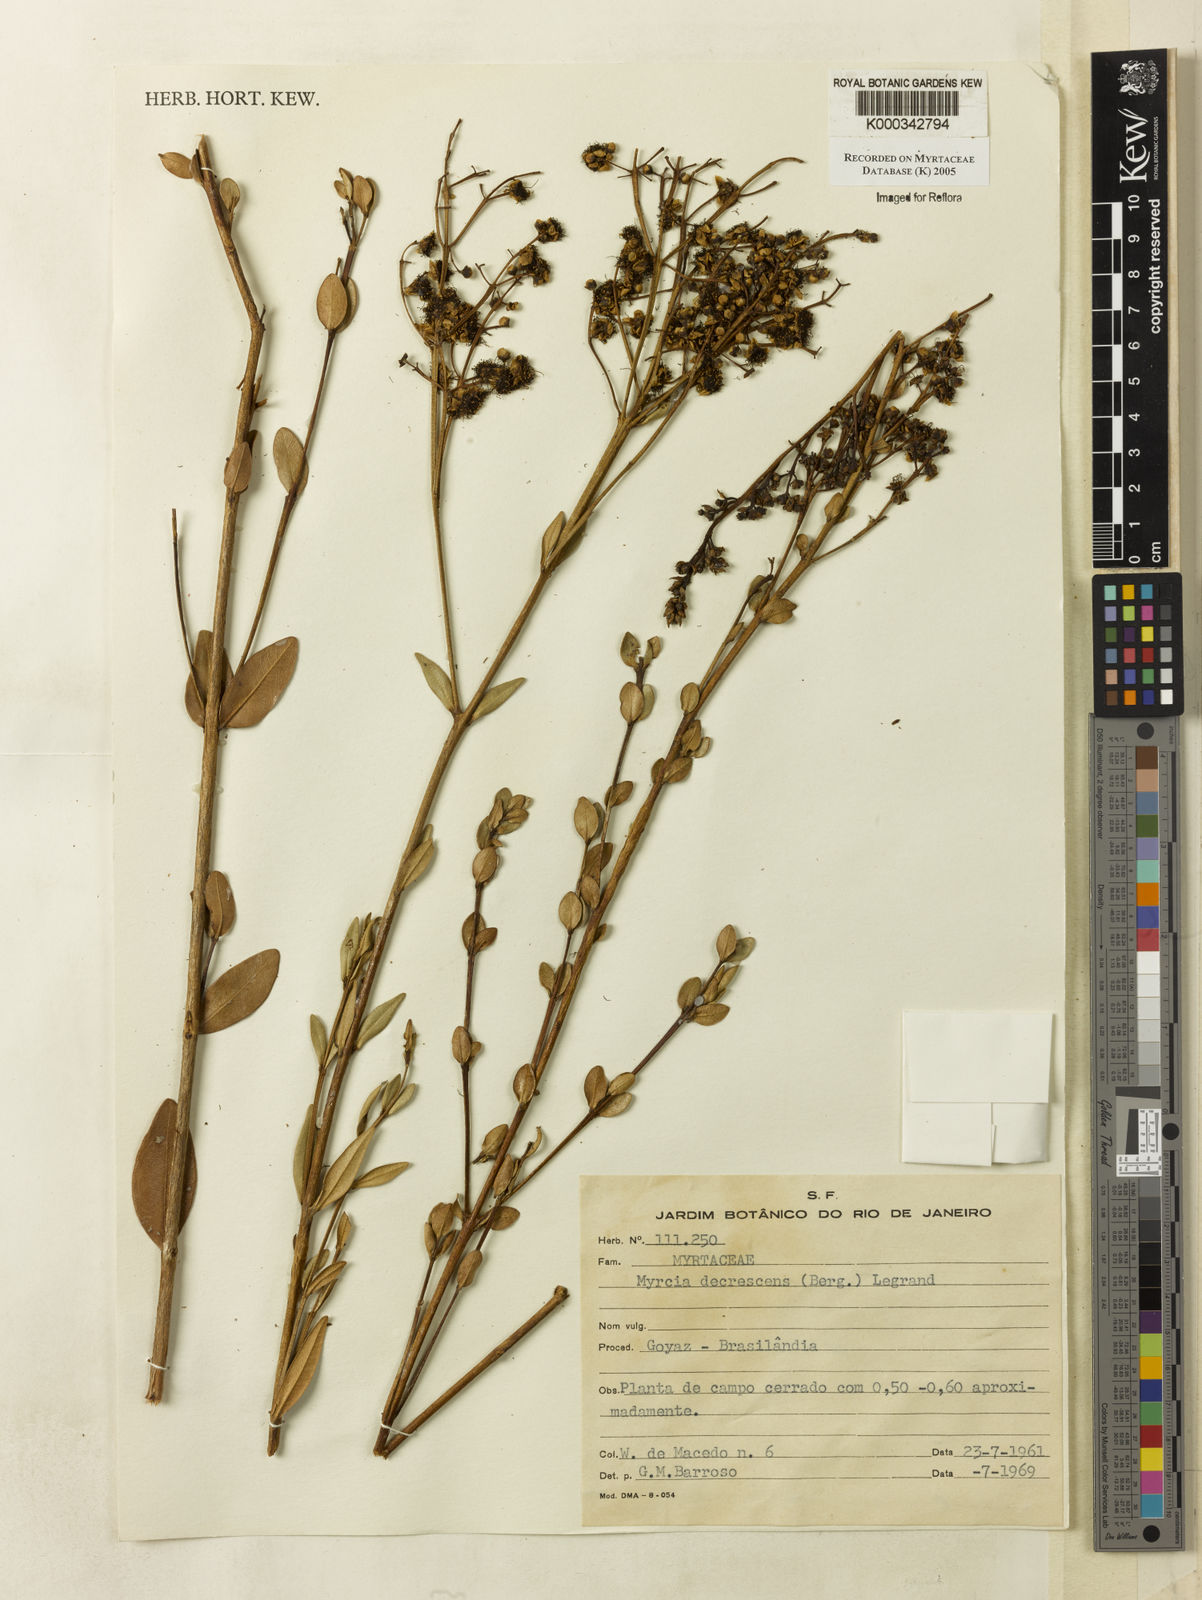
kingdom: Plantae
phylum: Tracheophyta
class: Magnoliopsida
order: Myrtales
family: Myrtaceae
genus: Myrcia
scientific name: Myrcia
